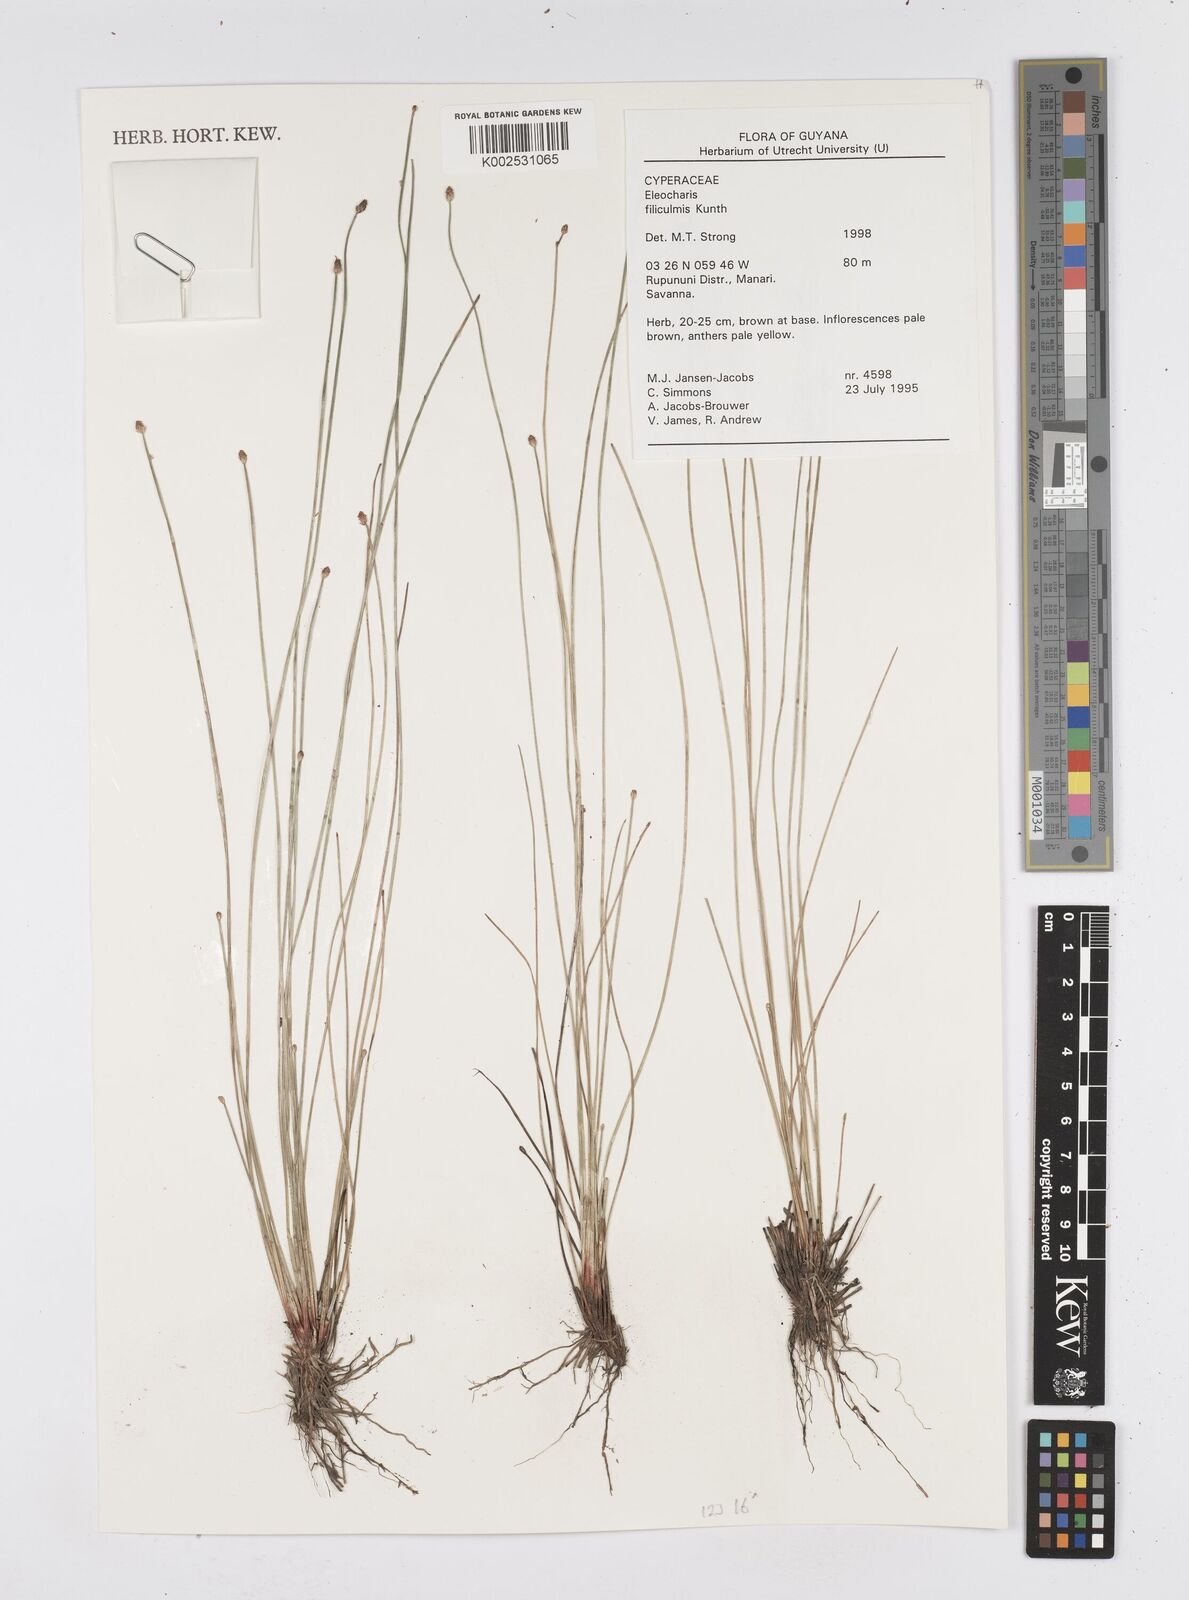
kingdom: Plantae
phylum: Tracheophyta
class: Liliopsida
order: Poales
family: Cyperaceae
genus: Eleocharis
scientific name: Eleocharis filiculmis
